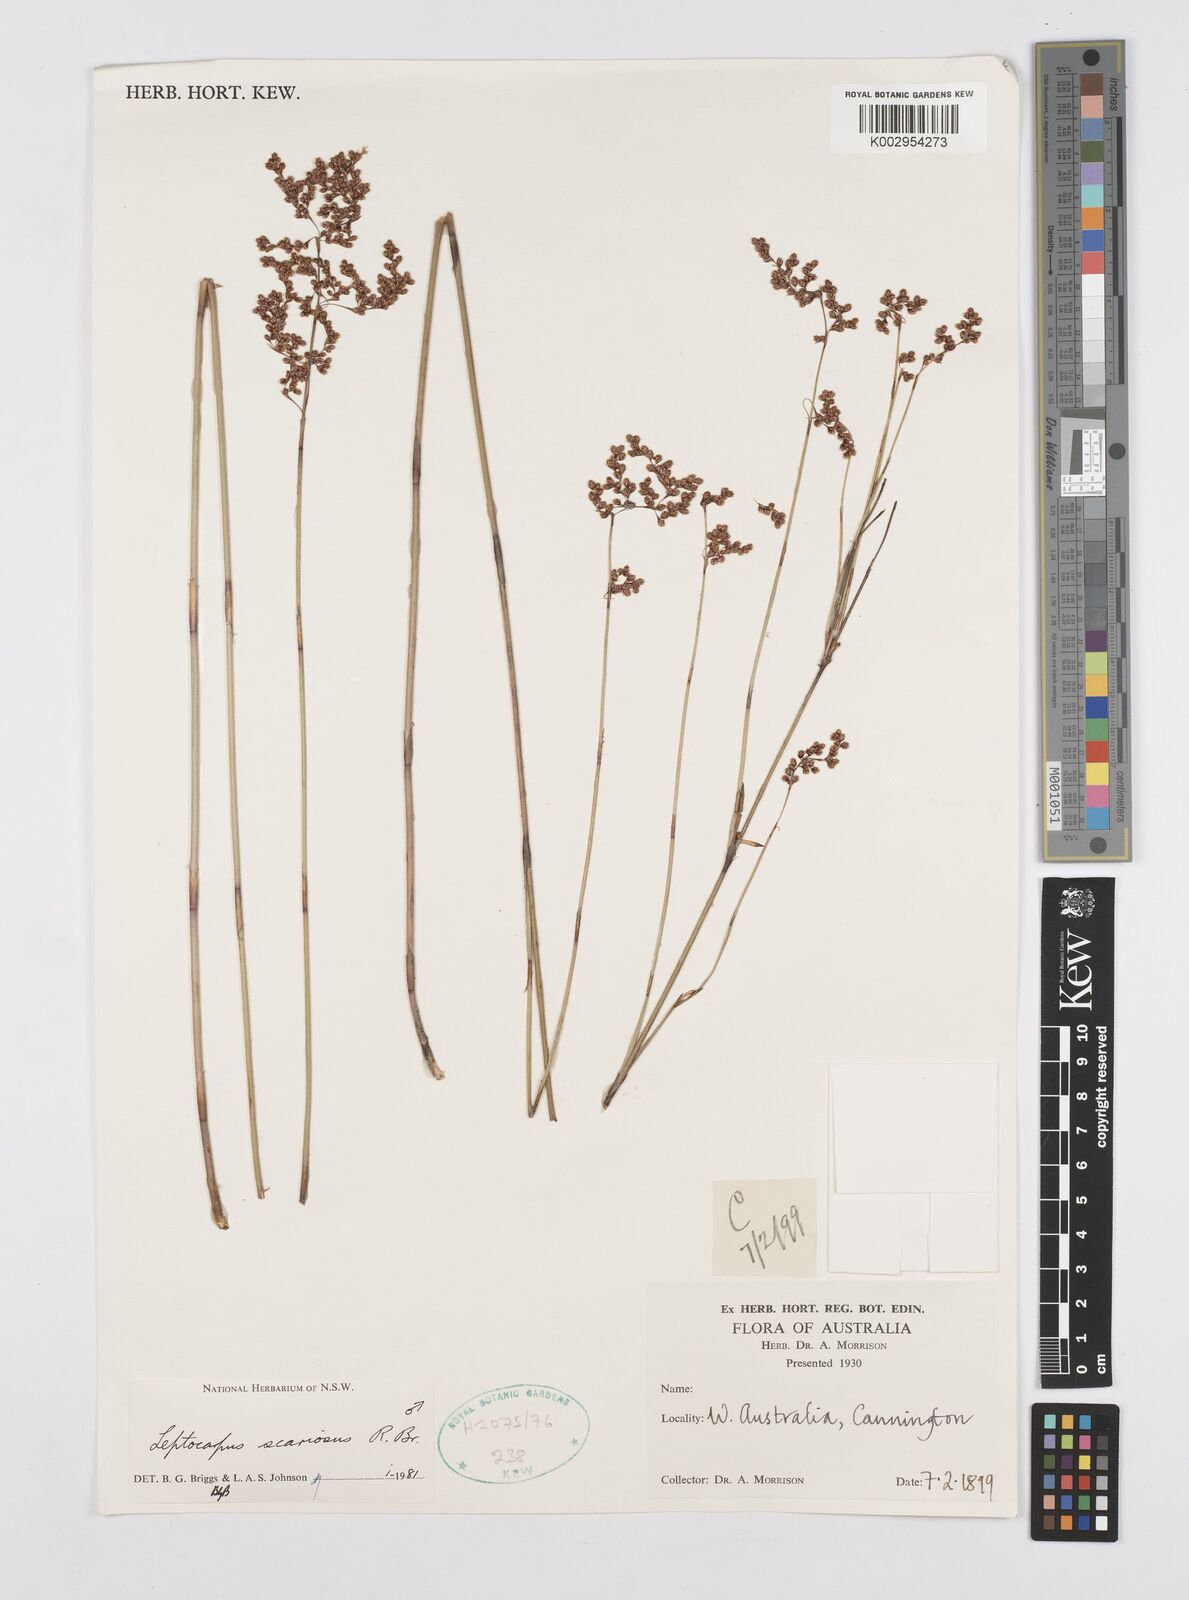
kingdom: Plantae
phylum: Tracheophyta
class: Liliopsida
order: Poales
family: Restionaceae
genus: Leptocarpus
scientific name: Leptocarpus scariosus
